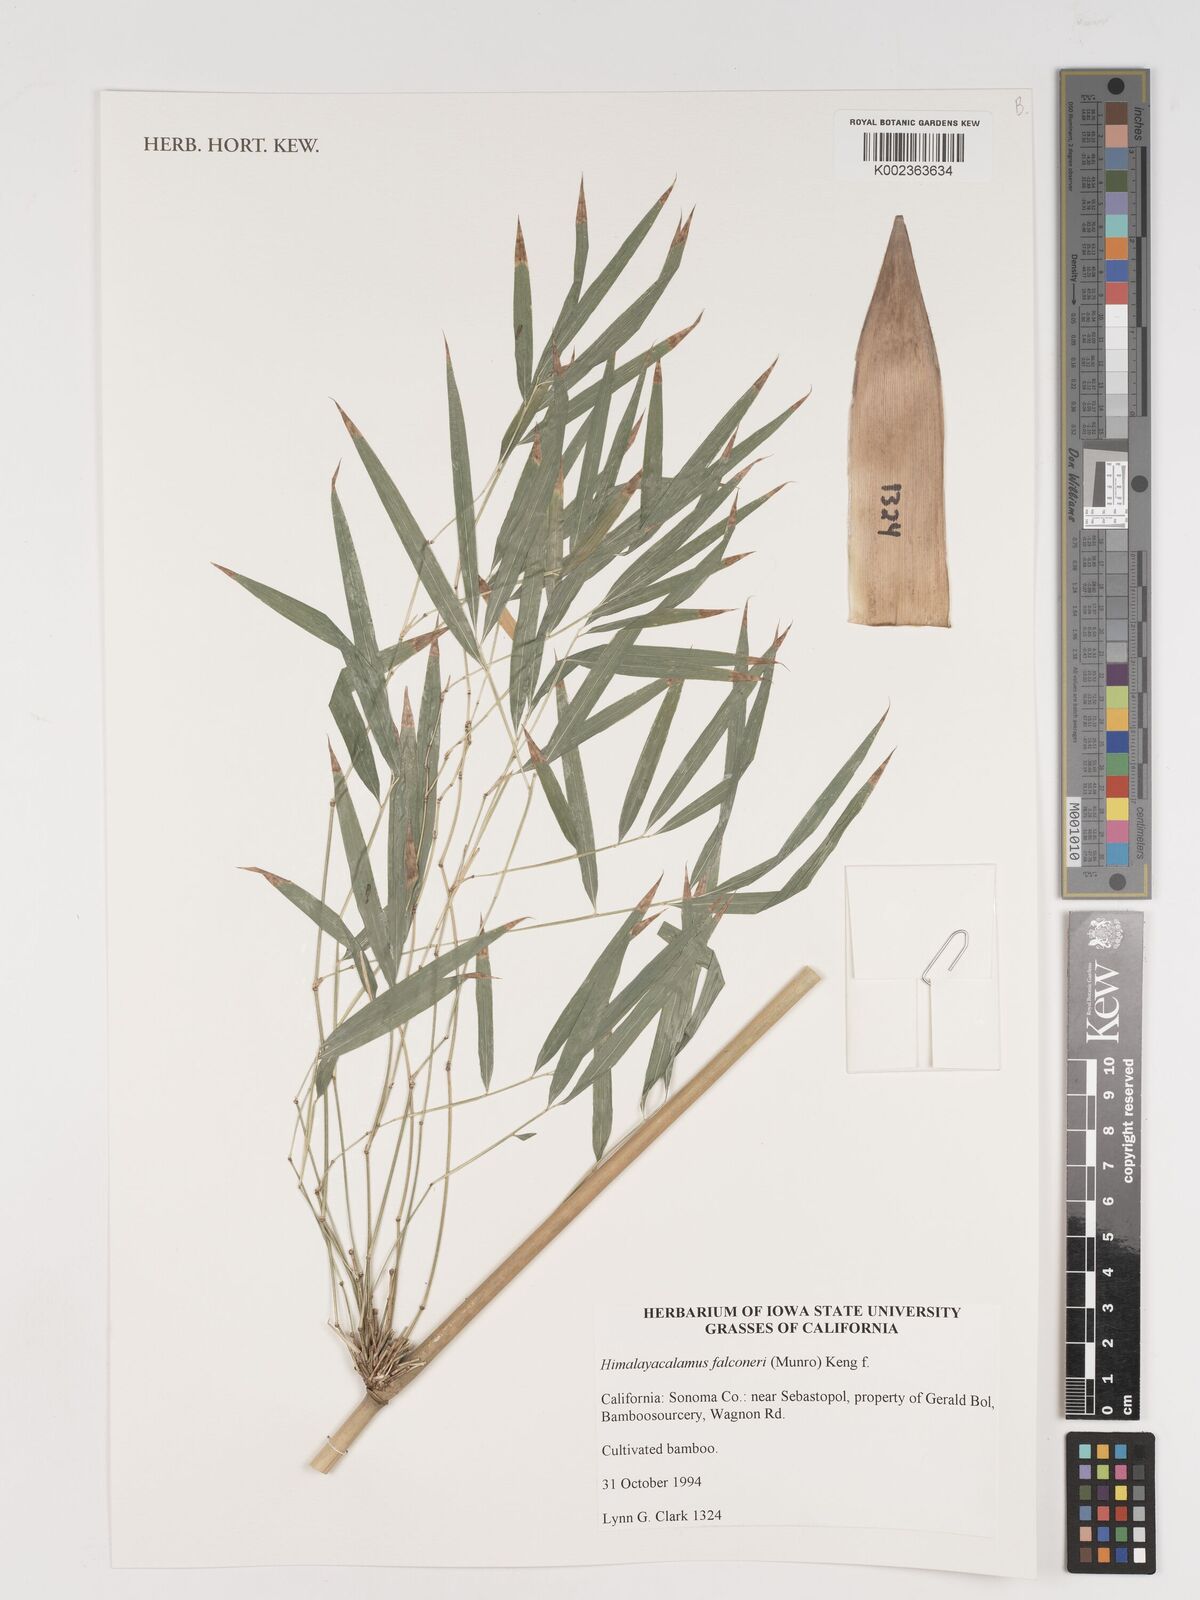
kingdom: Plantae
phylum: Tracheophyta
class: Liliopsida
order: Poales
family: Poaceae
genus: Himalayacalamus
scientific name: Himalayacalamus falconeri
